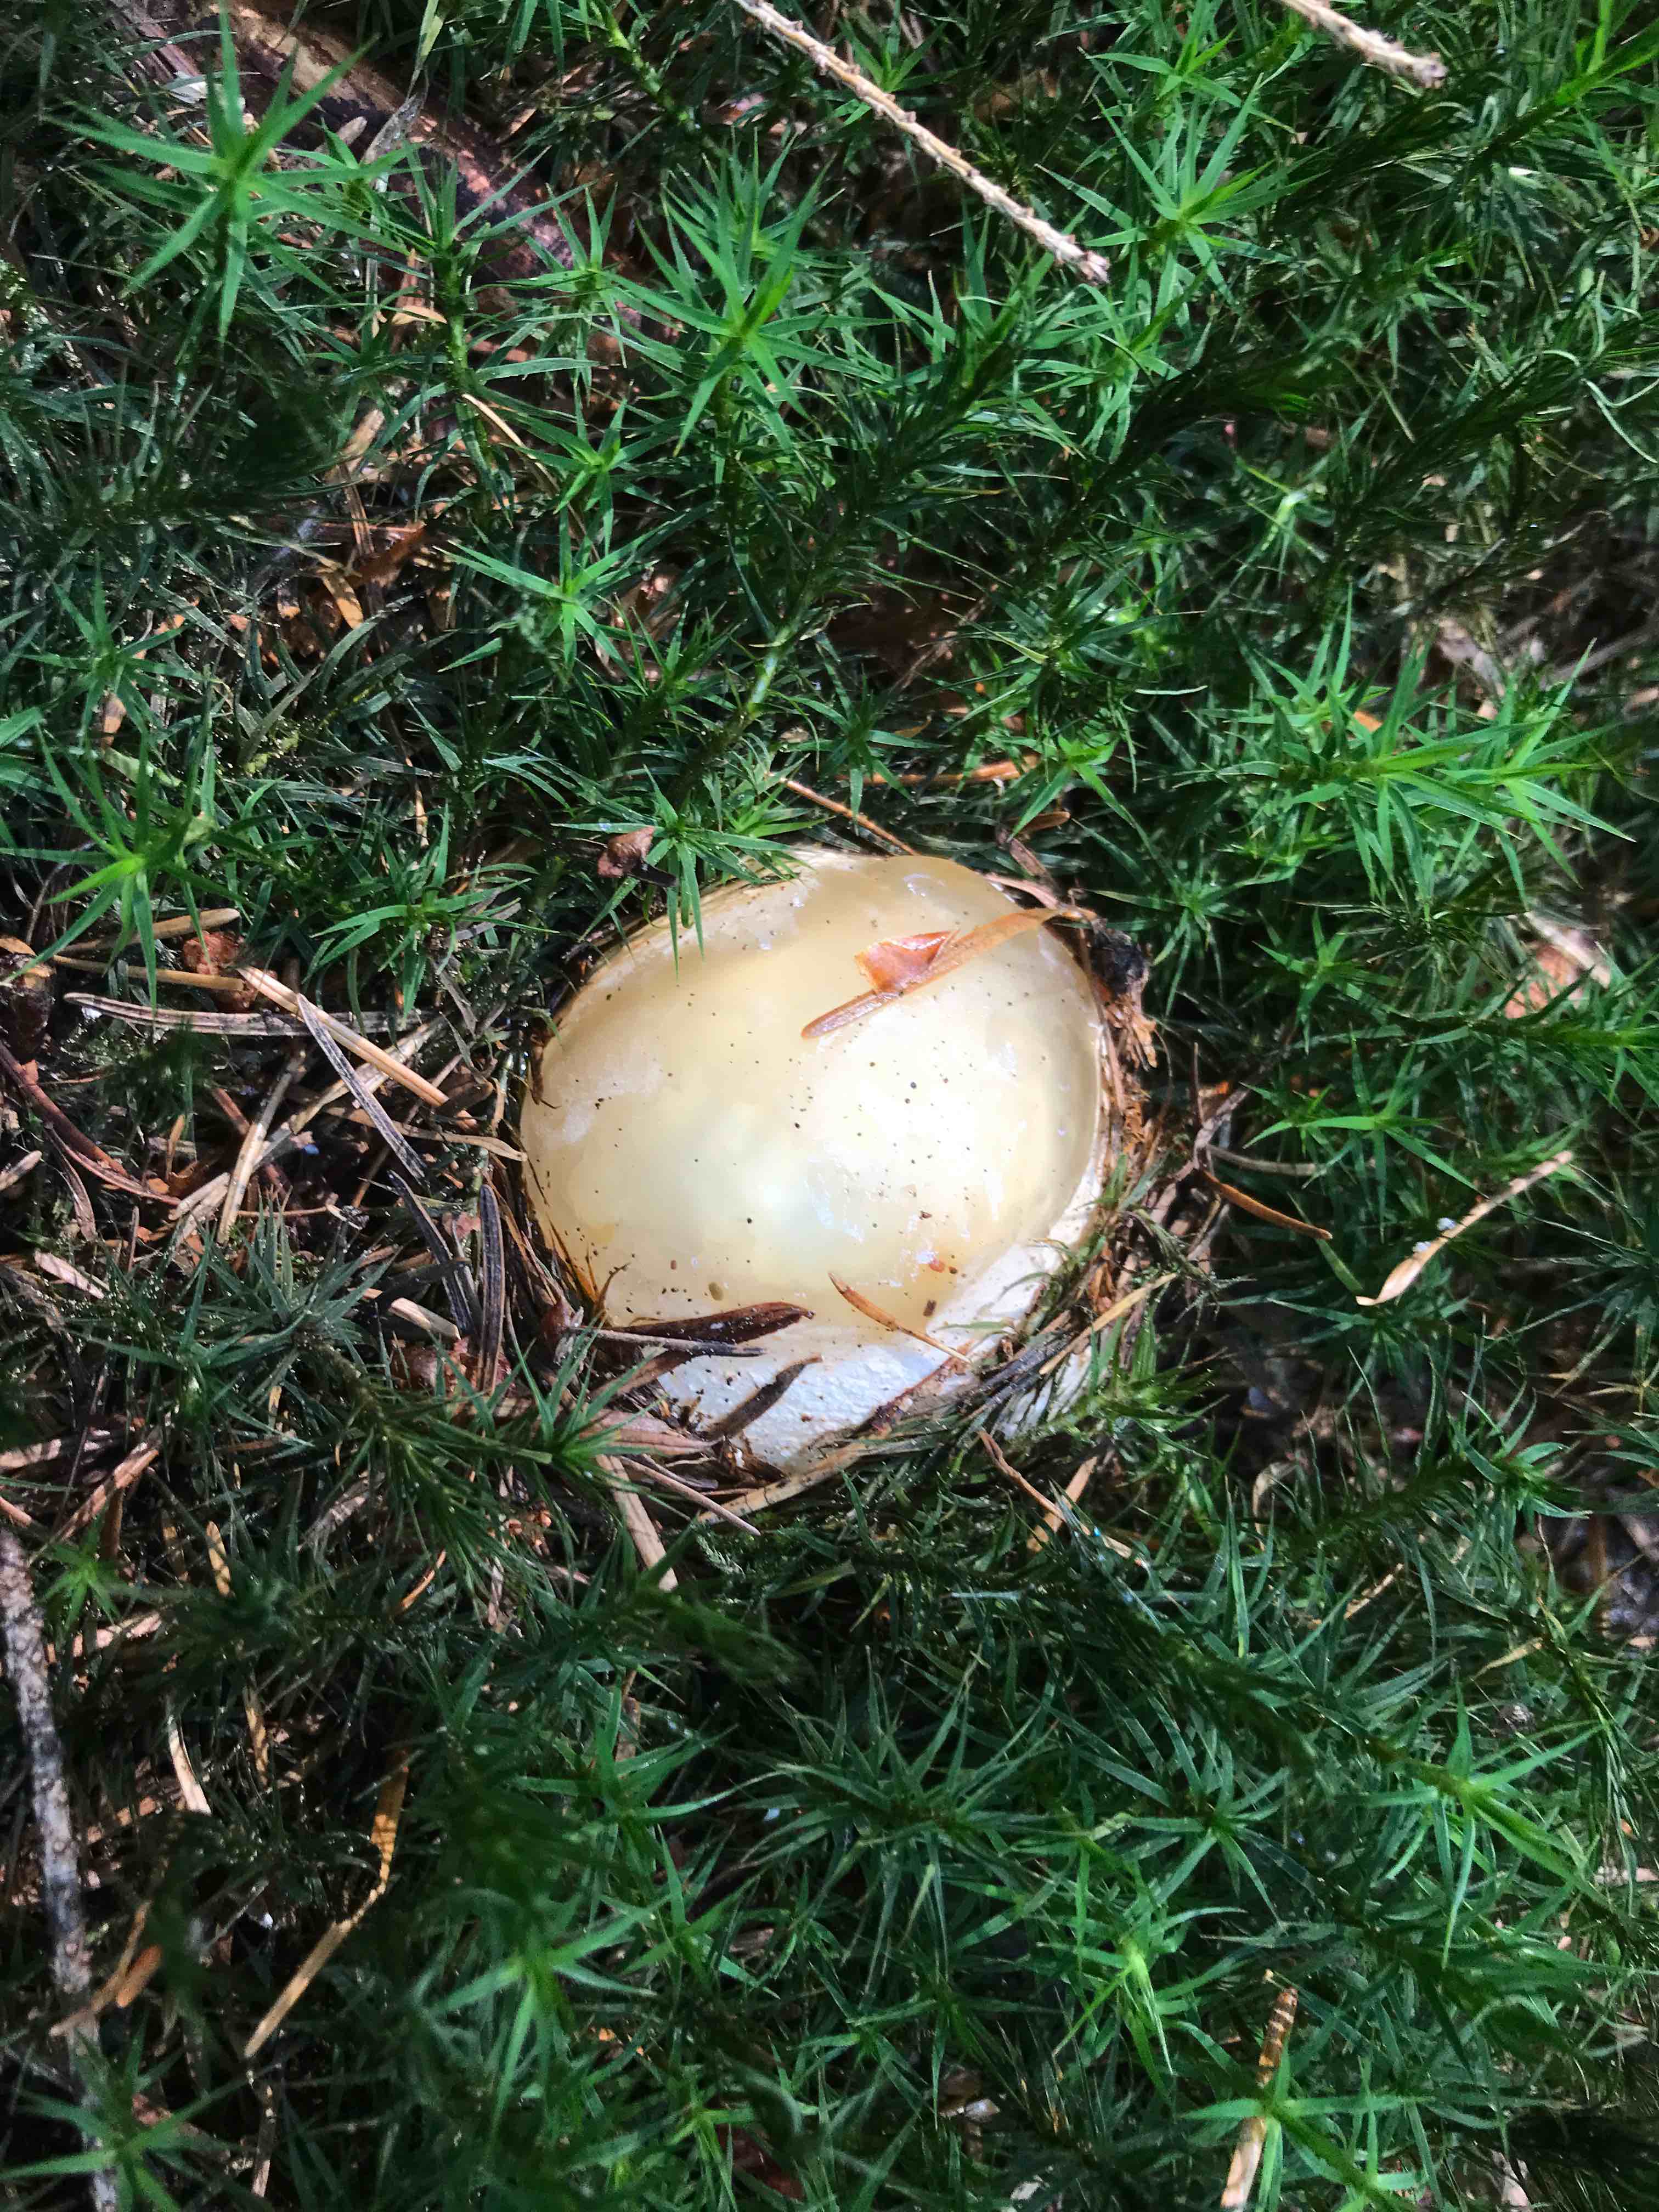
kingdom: Fungi
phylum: Basidiomycota
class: Agaricomycetes
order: Phallales
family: Phallaceae
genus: Phallus
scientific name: Phallus impudicus
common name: almindelig stinksvamp
